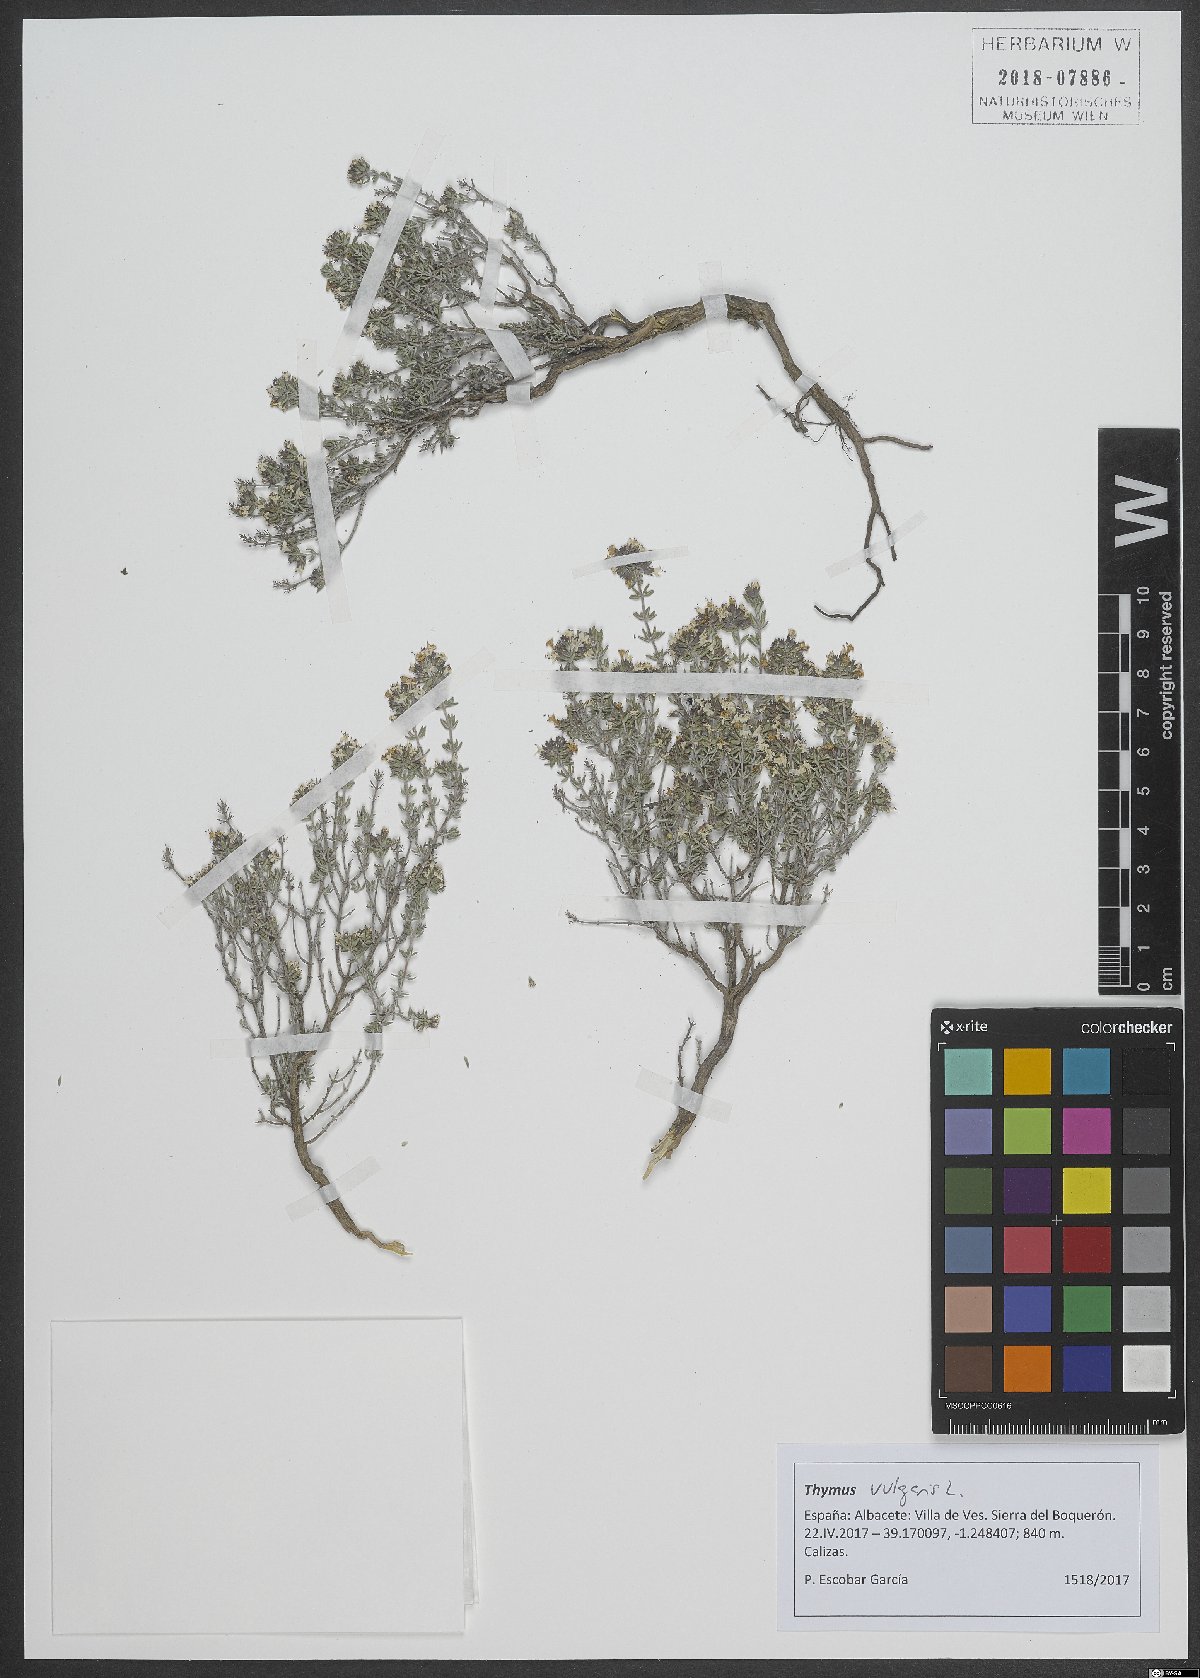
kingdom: Plantae
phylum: Tracheophyta
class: Magnoliopsida
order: Lamiales
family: Lamiaceae
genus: Thymus
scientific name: Thymus vulgaris
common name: Garden thyme
